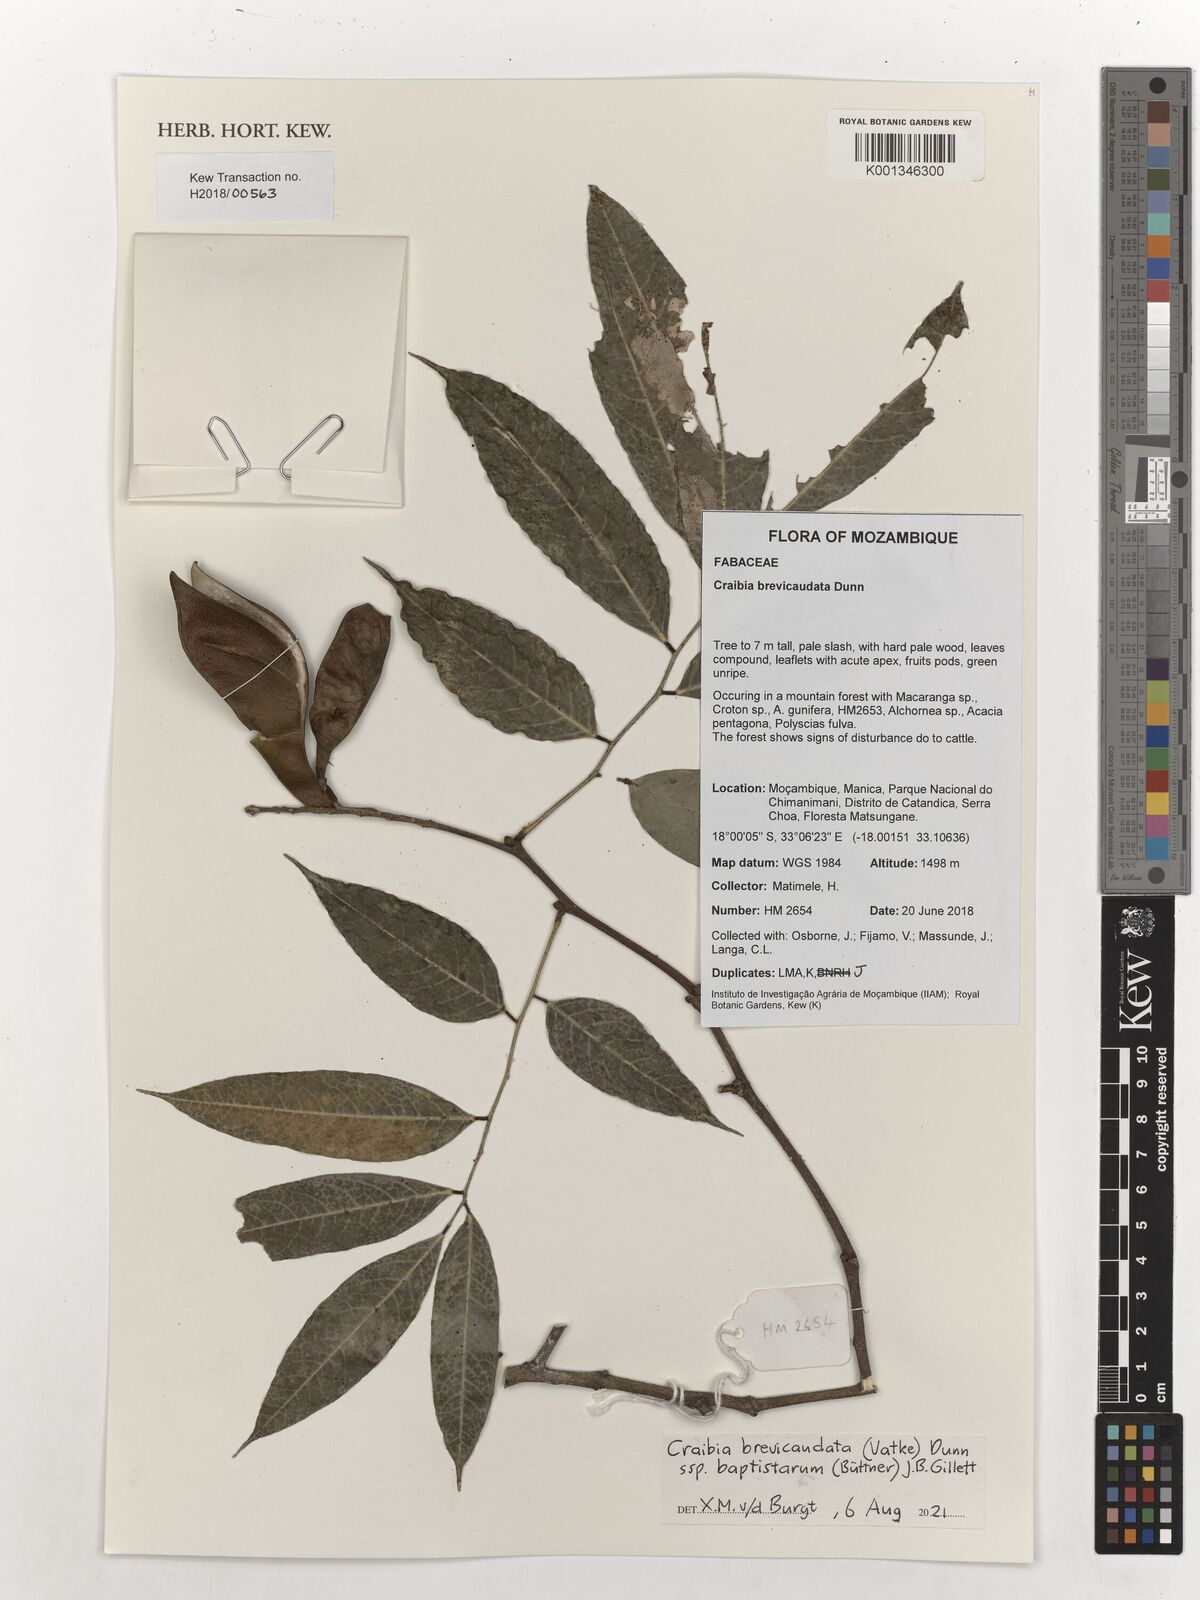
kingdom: Plantae
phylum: Tracheophyta
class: Magnoliopsida
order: Fabales
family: Fabaceae
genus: Craibia
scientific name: Craibia brevicaudata
